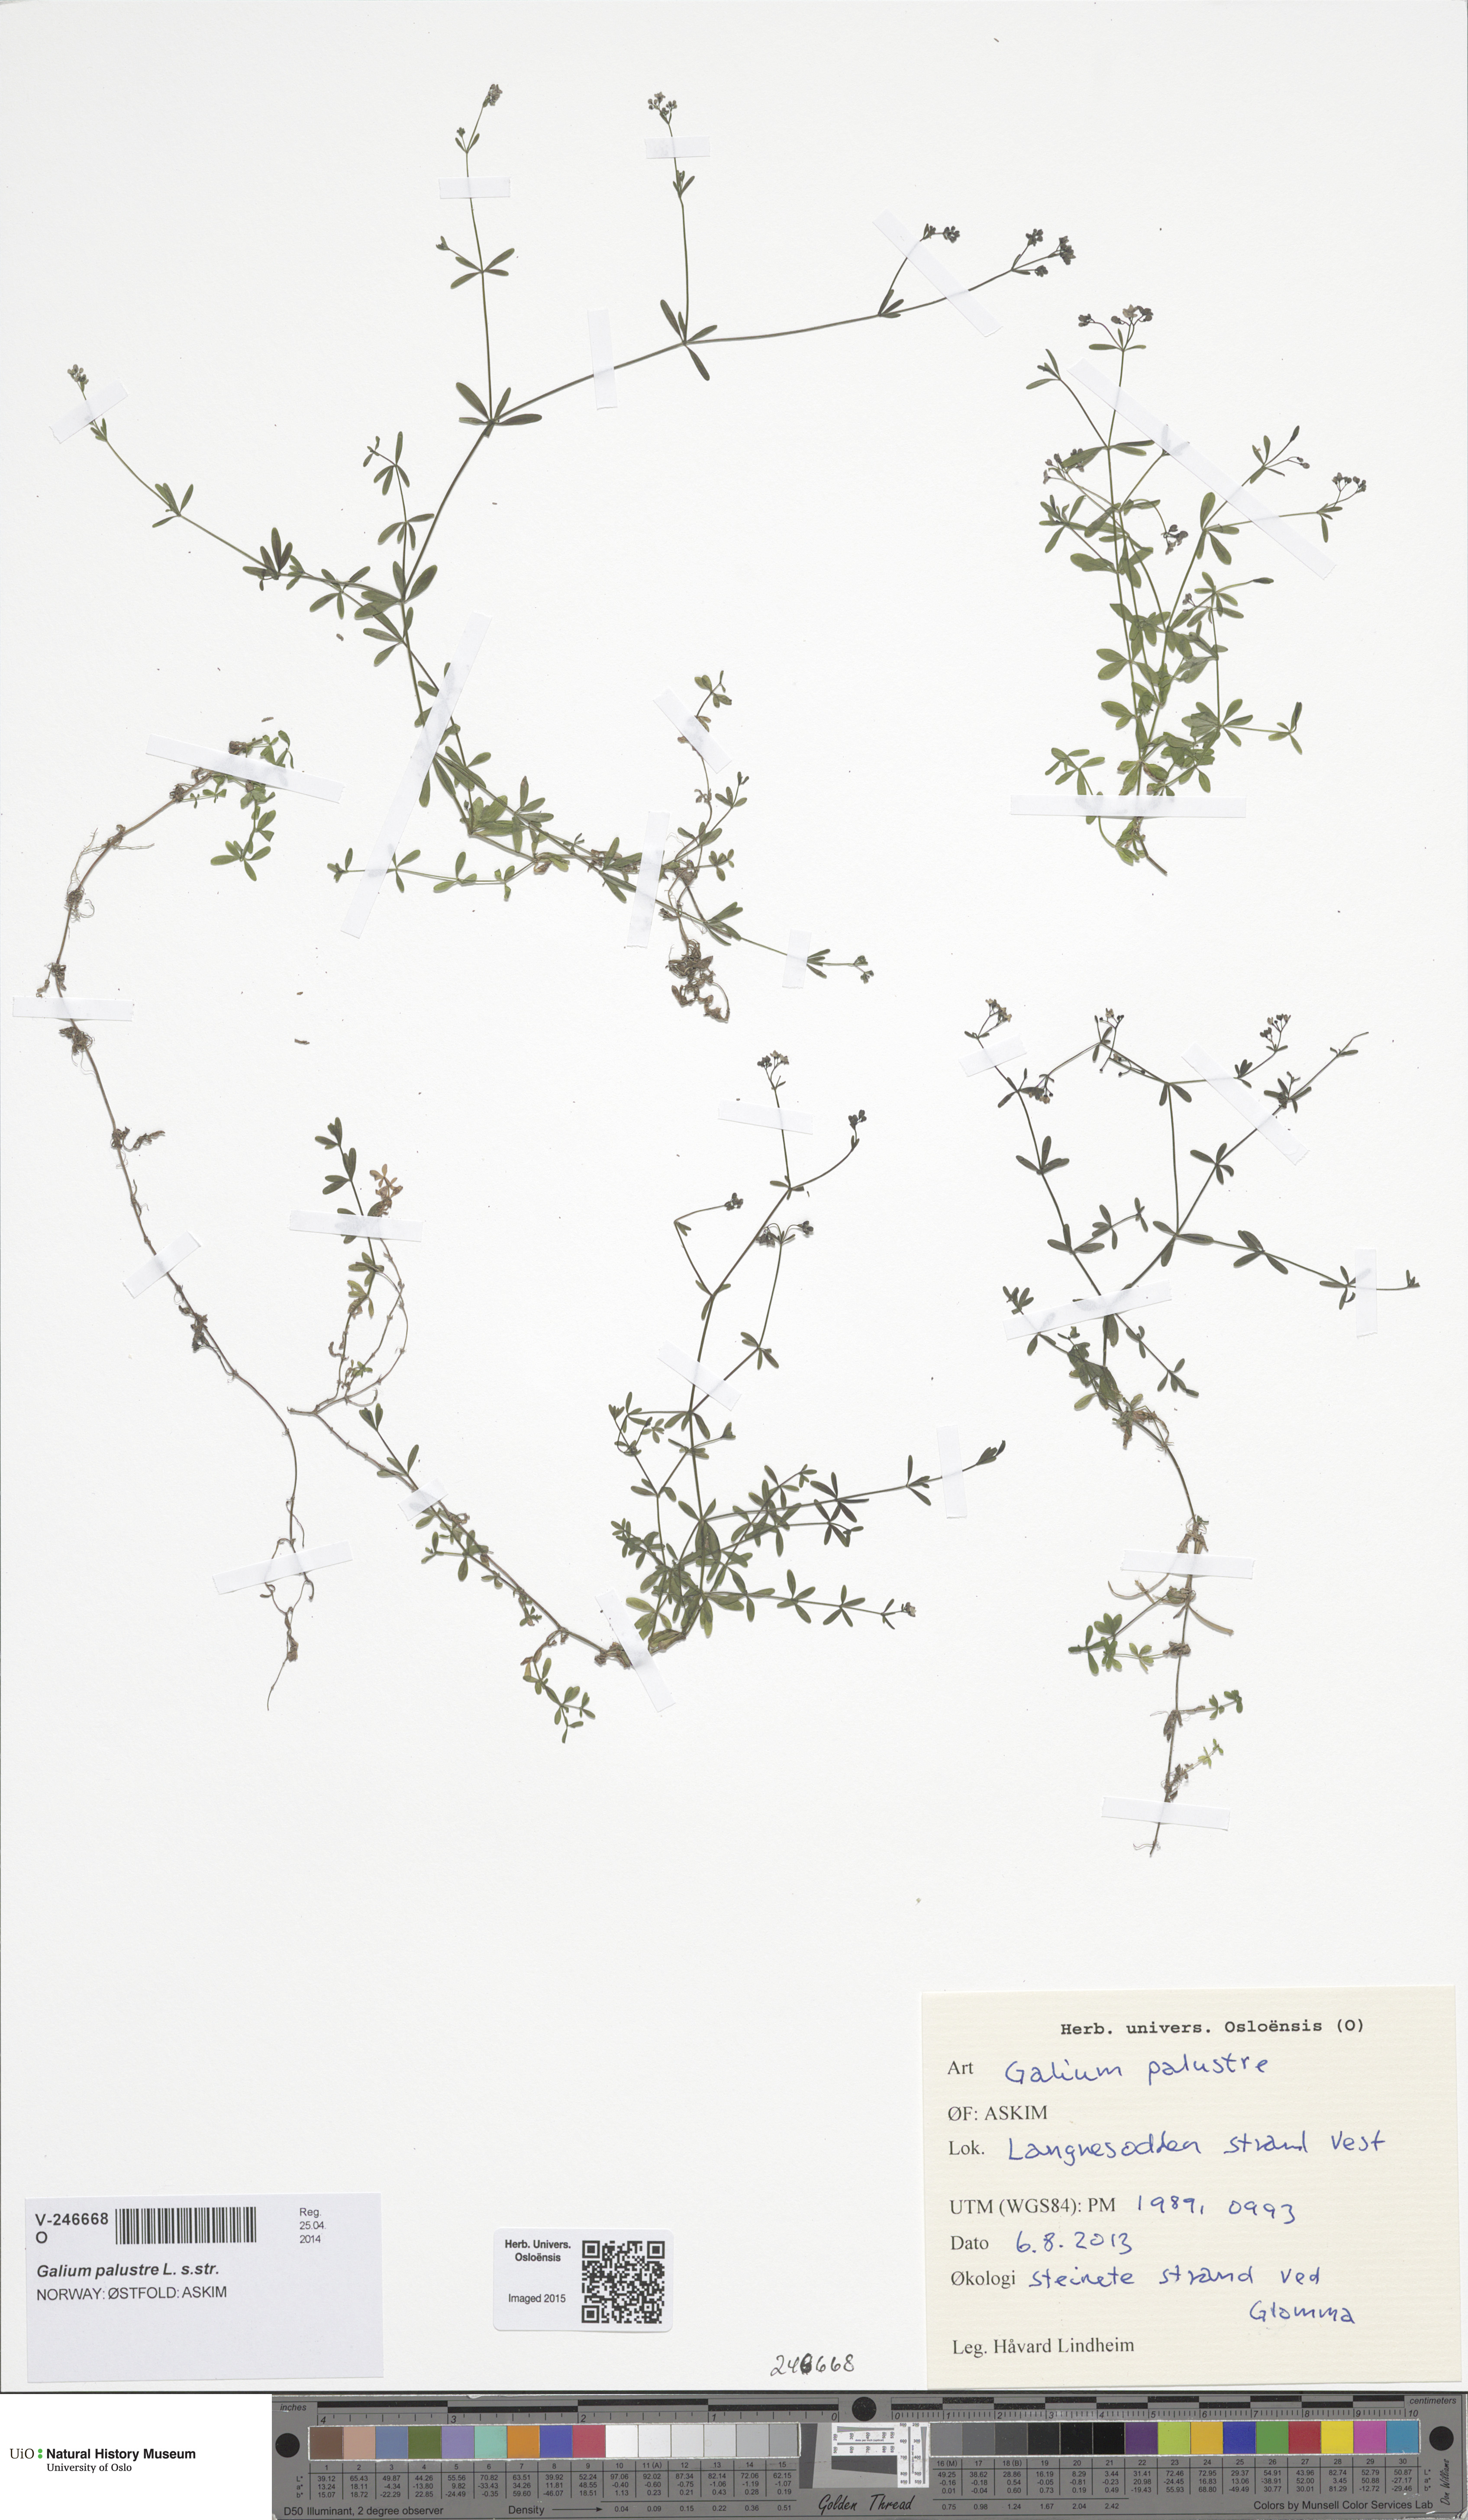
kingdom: Plantae
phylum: Tracheophyta
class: Magnoliopsida
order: Gentianales
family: Rubiaceae
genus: Galium
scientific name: Galium palustre
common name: Common marsh-bedstraw
